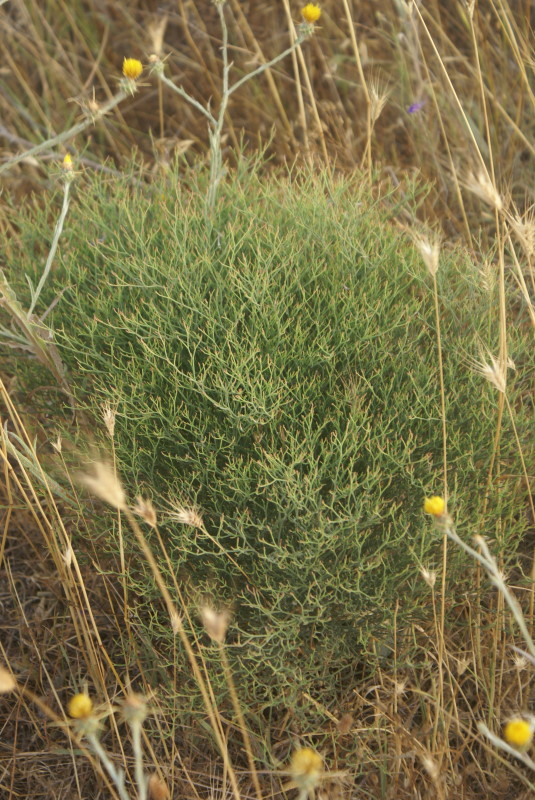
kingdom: Plantae
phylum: Tracheophyta
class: Magnoliopsida
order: Caryophyllales
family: Plumbaginaceae
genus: Goniolimon
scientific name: Goniolimon tataricum
